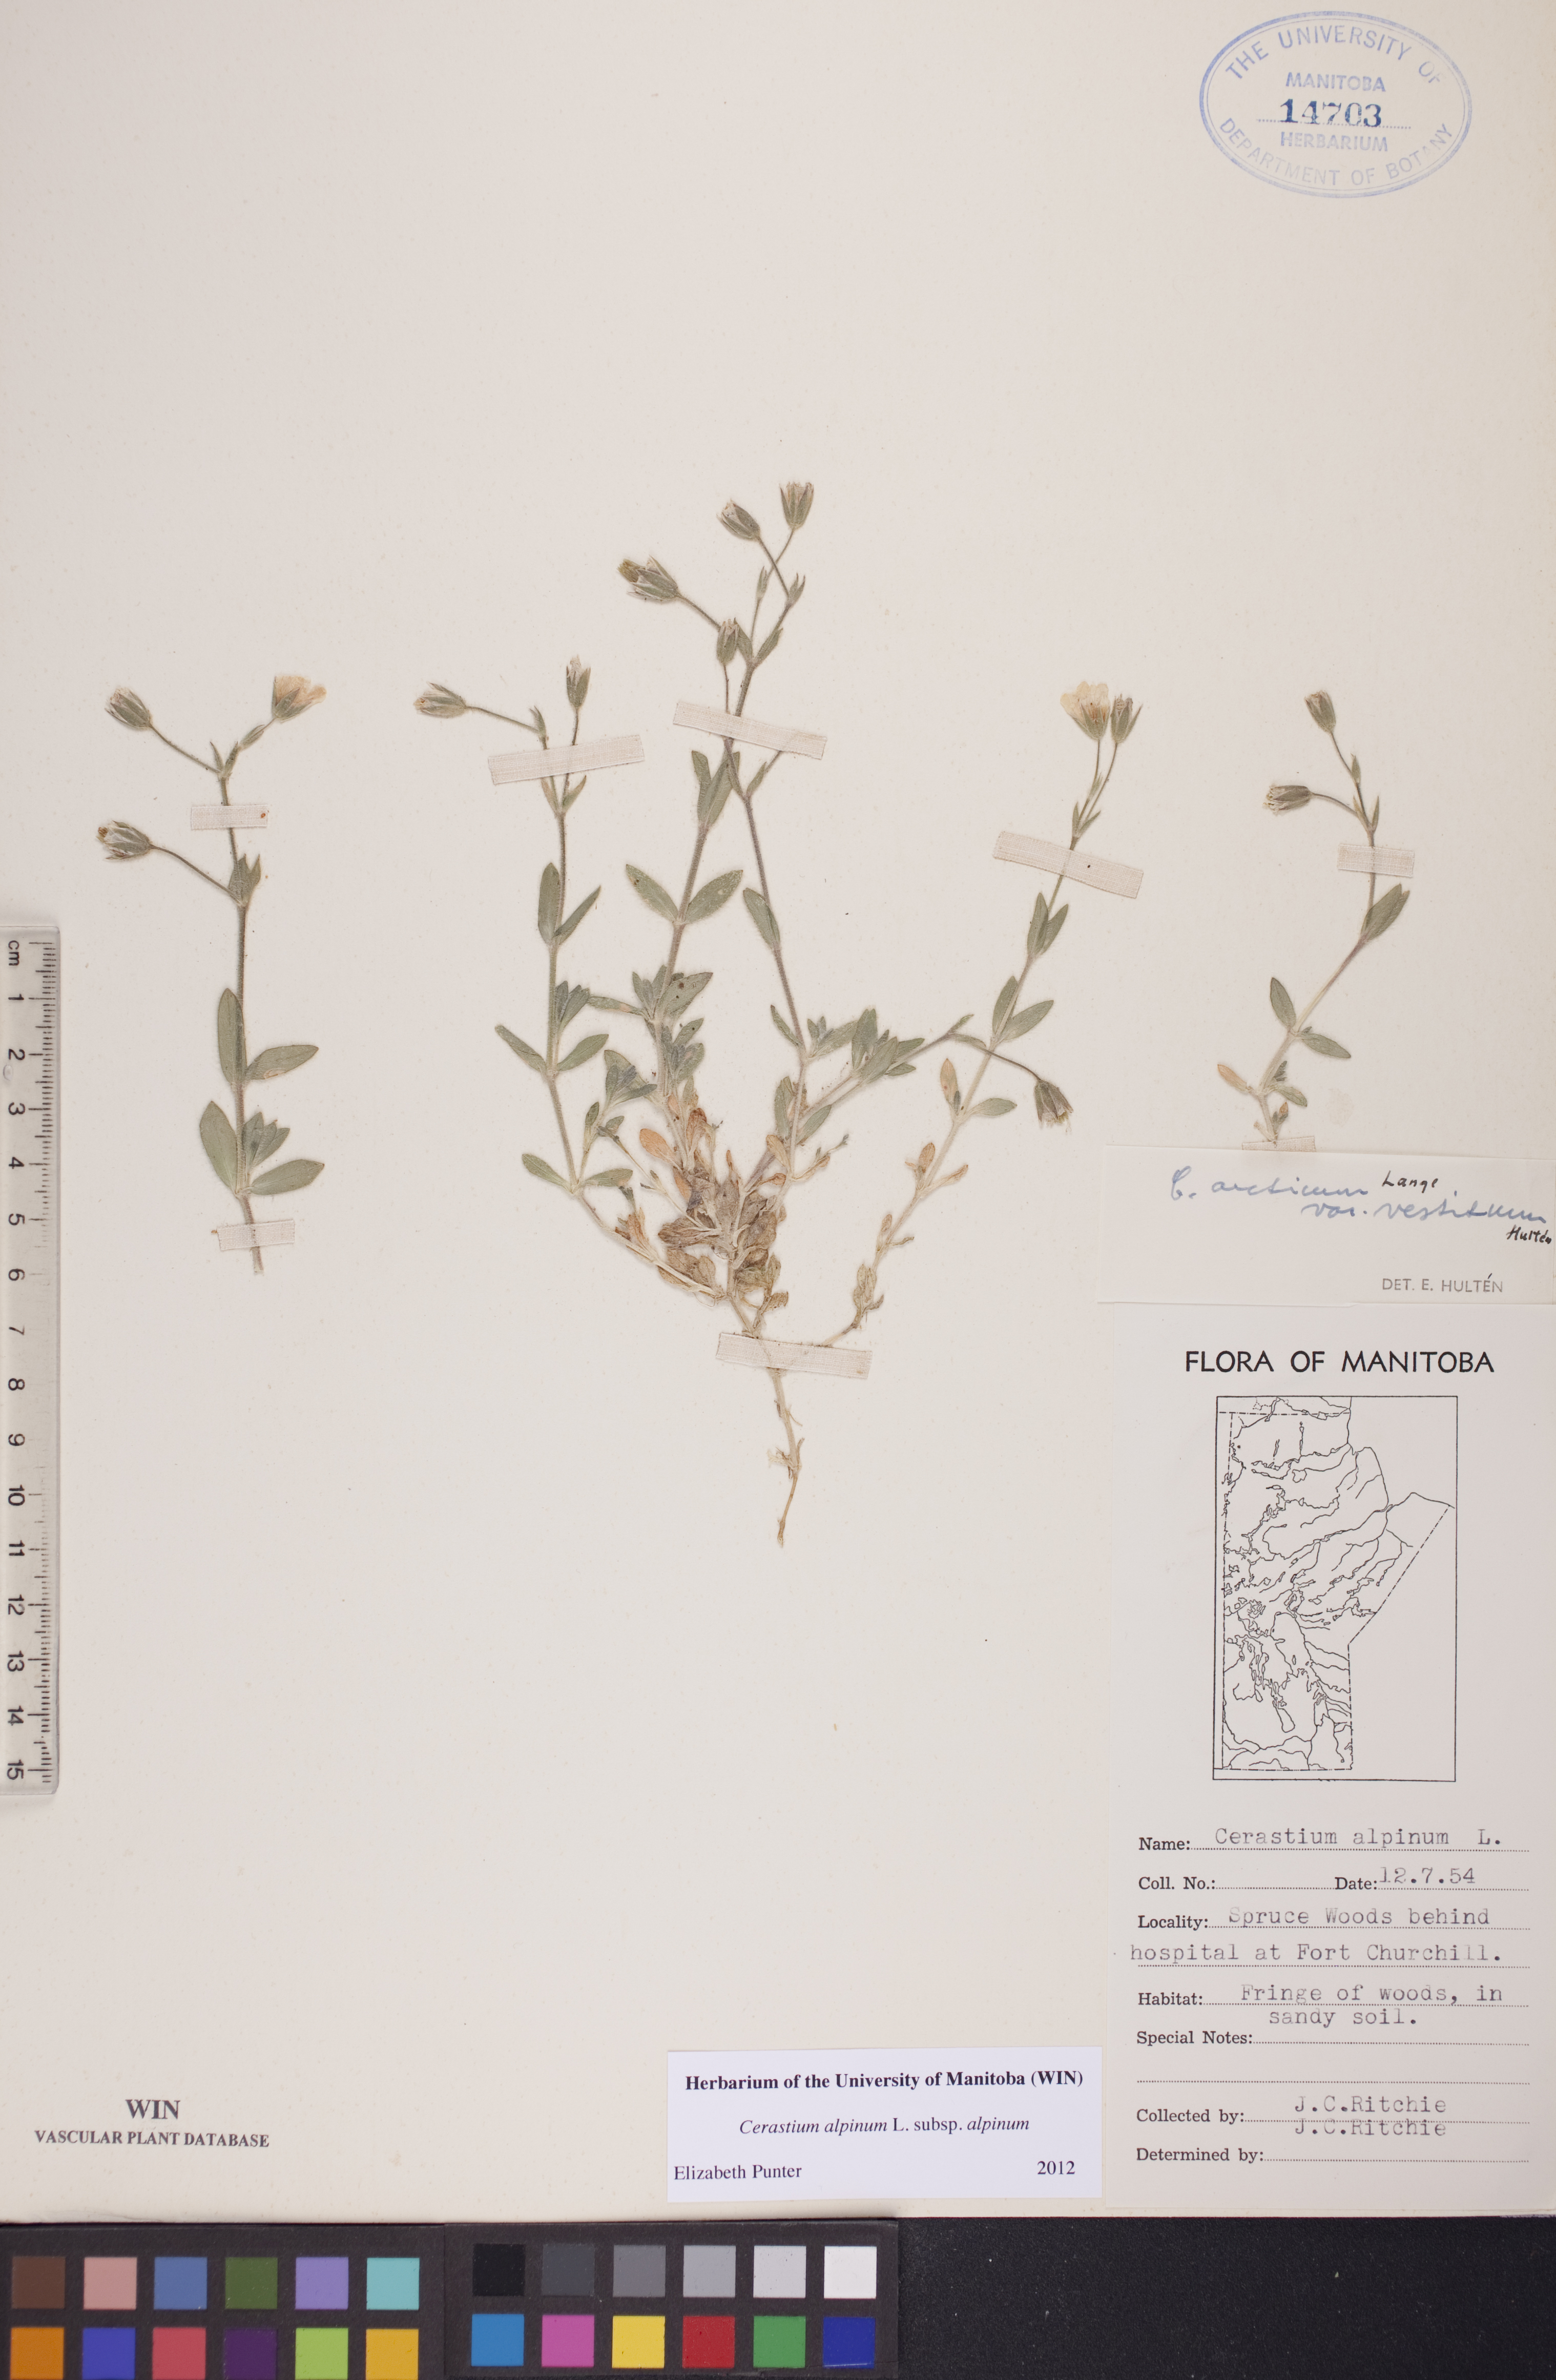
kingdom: Plantae
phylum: Tracheophyta
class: Magnoliopsida
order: Caryophyllales
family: Caryophyllaceae
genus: Cerastium
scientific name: Cerastium alpinum
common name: Alpine mouse-ear
